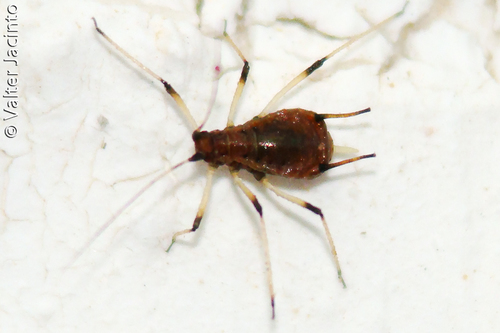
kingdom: Animalia
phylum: Arthropoda
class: Insecta
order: Hemiptera
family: Aphididae
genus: Macrosiphum
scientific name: Macrosiphum rosae
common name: Rose aphid
